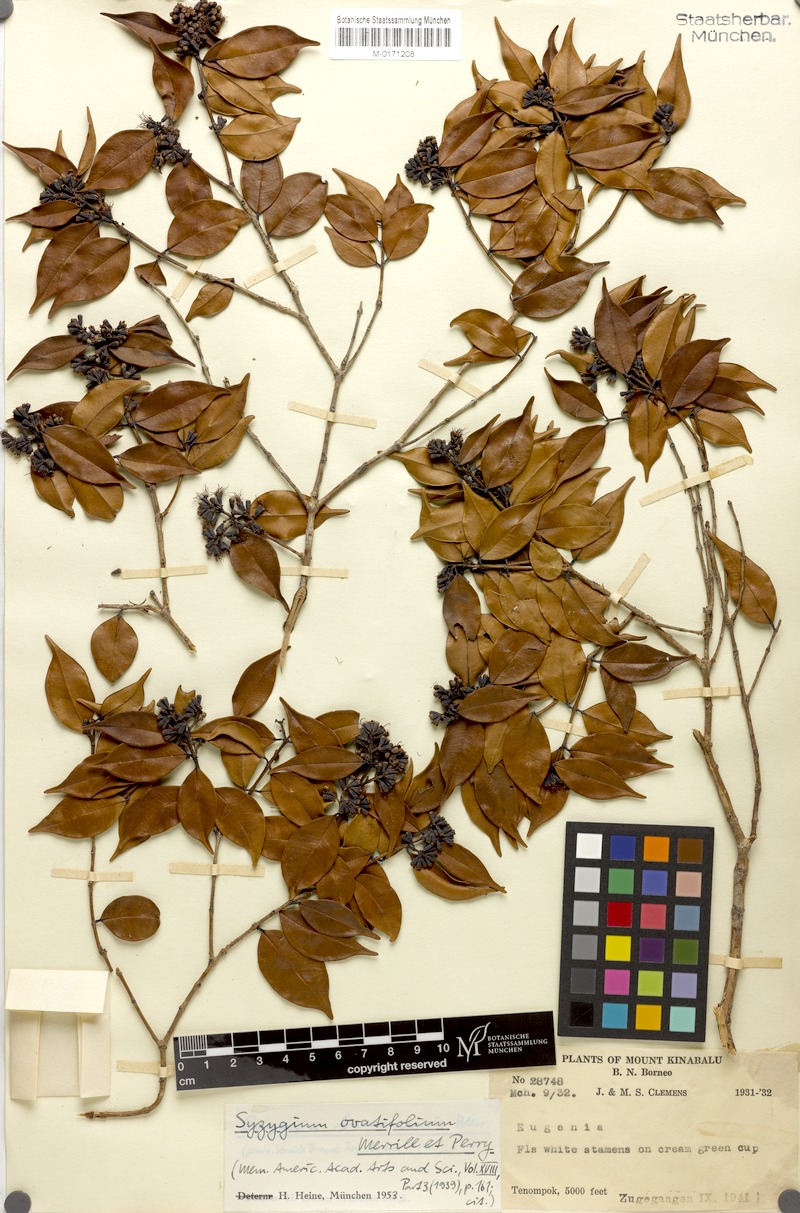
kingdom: Plantae
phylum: Tracheophyta
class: Magnoliopsida
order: Myrtales
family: Myrtaceae
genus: Syzygium
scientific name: Syzygium antisepticum
